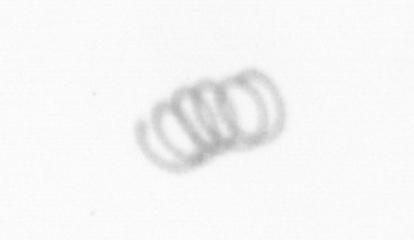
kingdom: Chromista
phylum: Ochrophyta
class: Bacillariophyceae
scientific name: Bacillariophyceae
